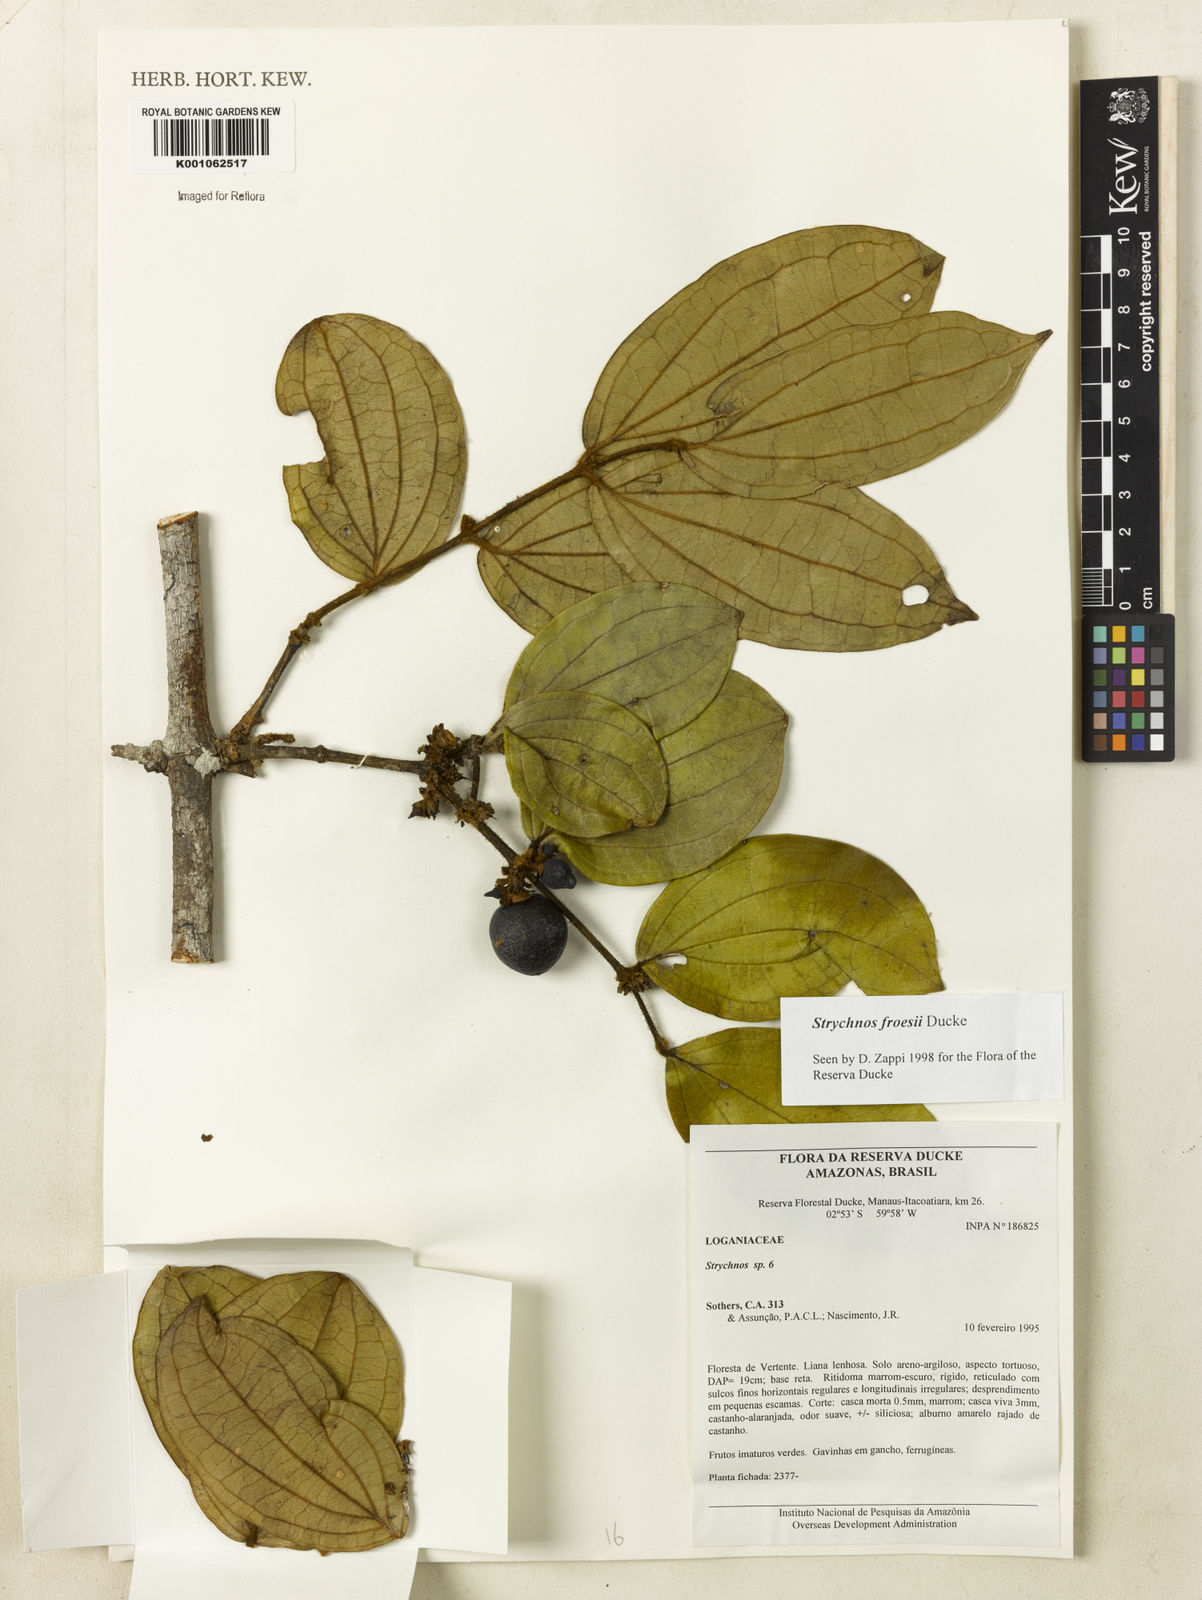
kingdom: Plantae
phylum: Tracheophyta
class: Magnoliopsida
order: Gentianales
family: Loganiaceae
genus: Strychnos
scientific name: Strychnos froesii
